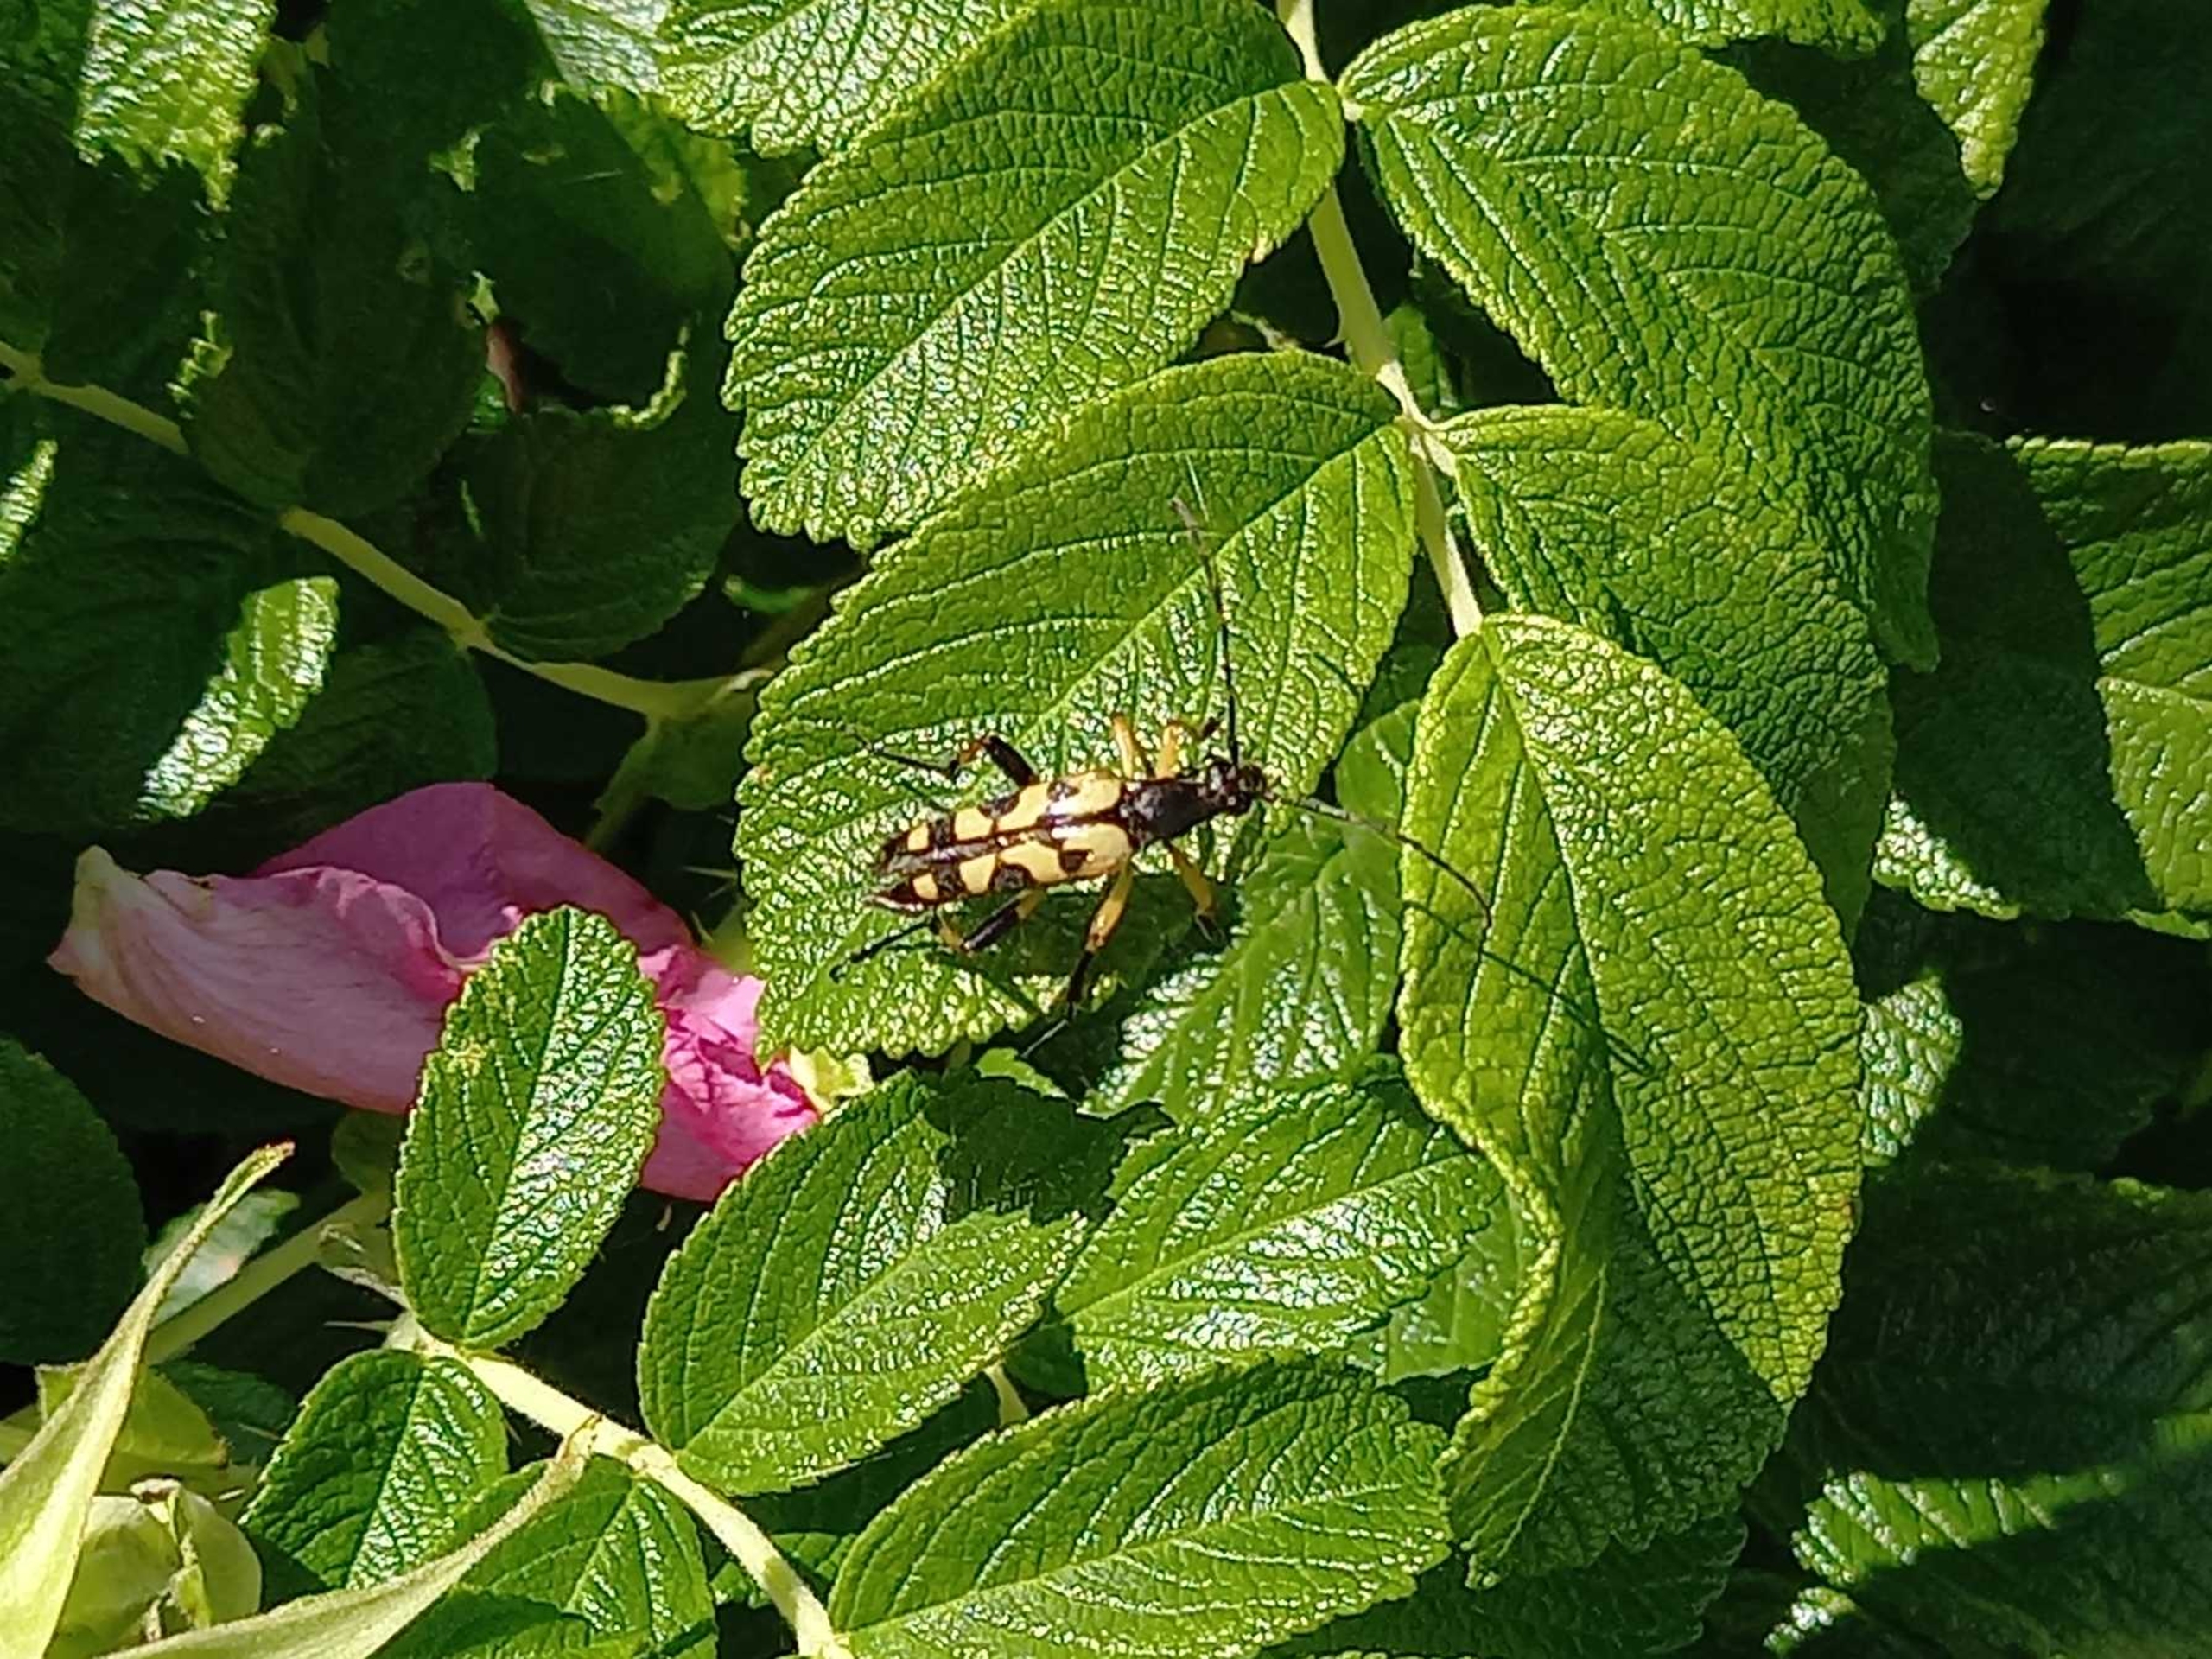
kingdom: Animalia
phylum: Arthropoda
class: Insecta
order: Coleoptera
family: Cerambycidae
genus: Rutpela
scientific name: Rutpela maculata
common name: Sydlig blomsterbuk
